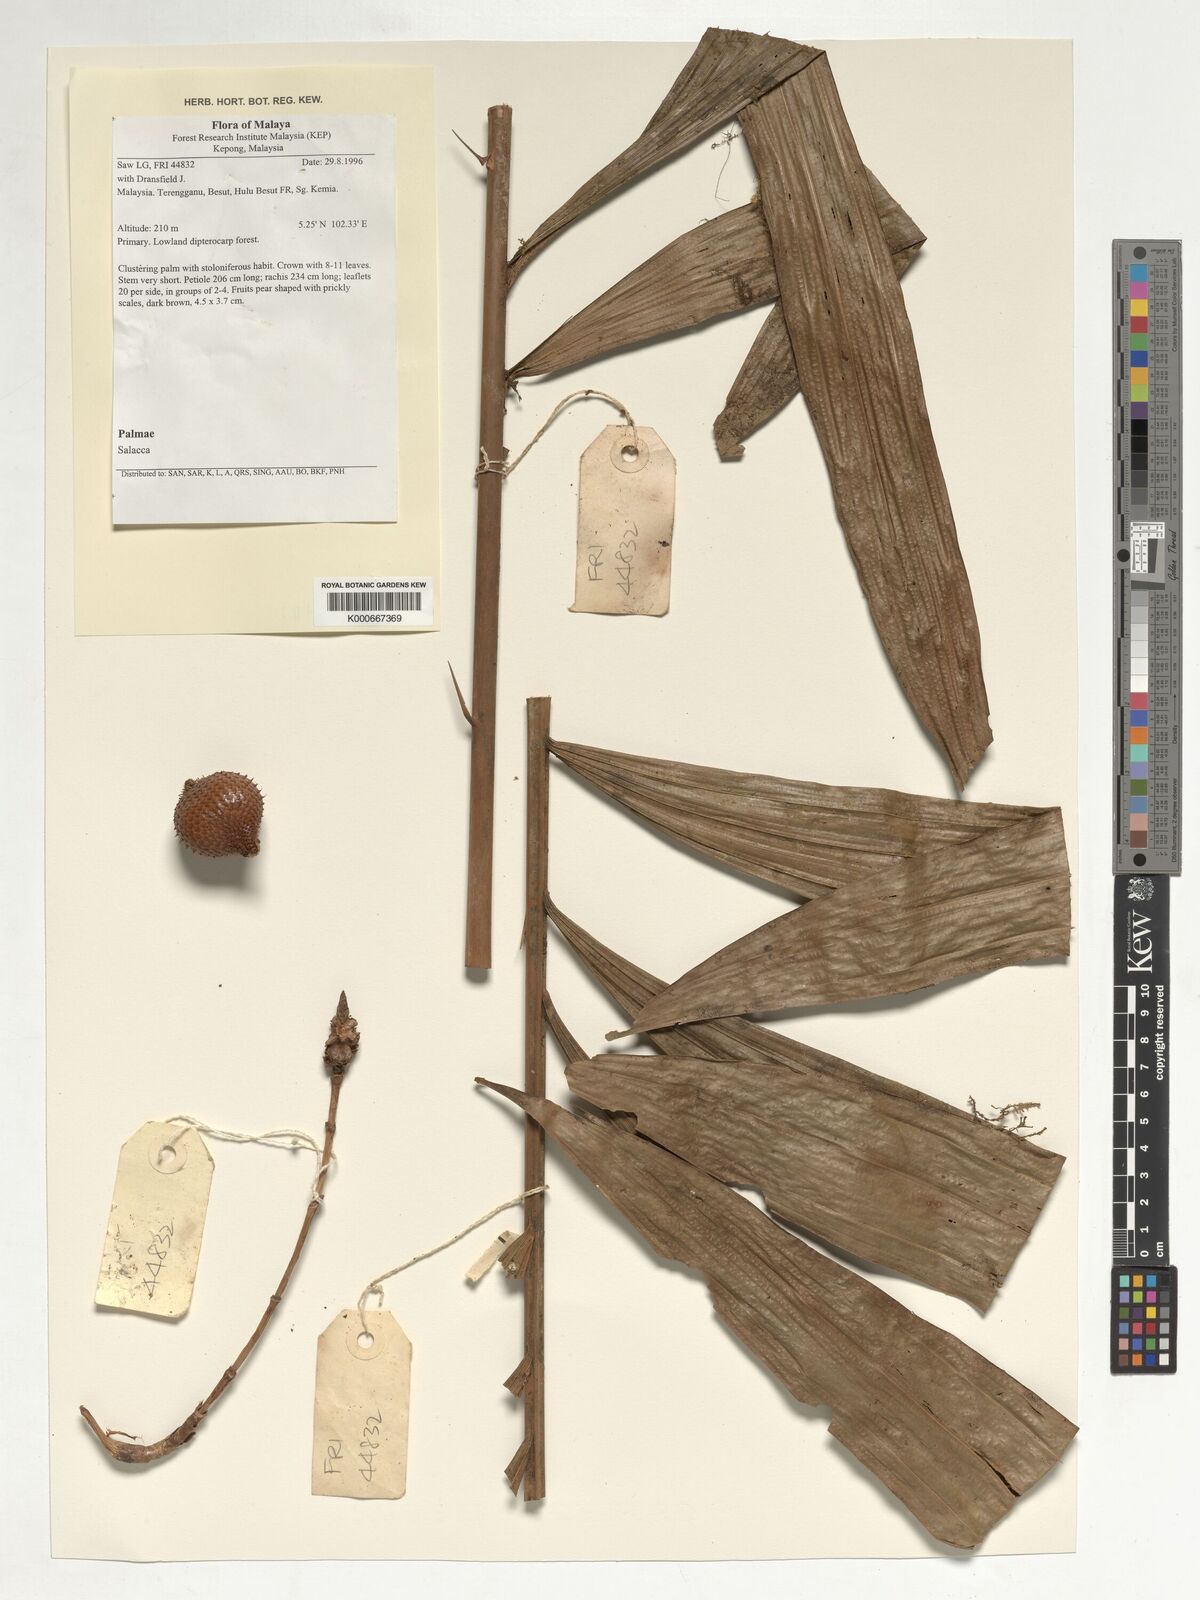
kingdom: Plantae
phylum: Tracheophyta
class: Liliopsida
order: Arecales
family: Arecaceae
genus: Salacca
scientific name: Salacca
